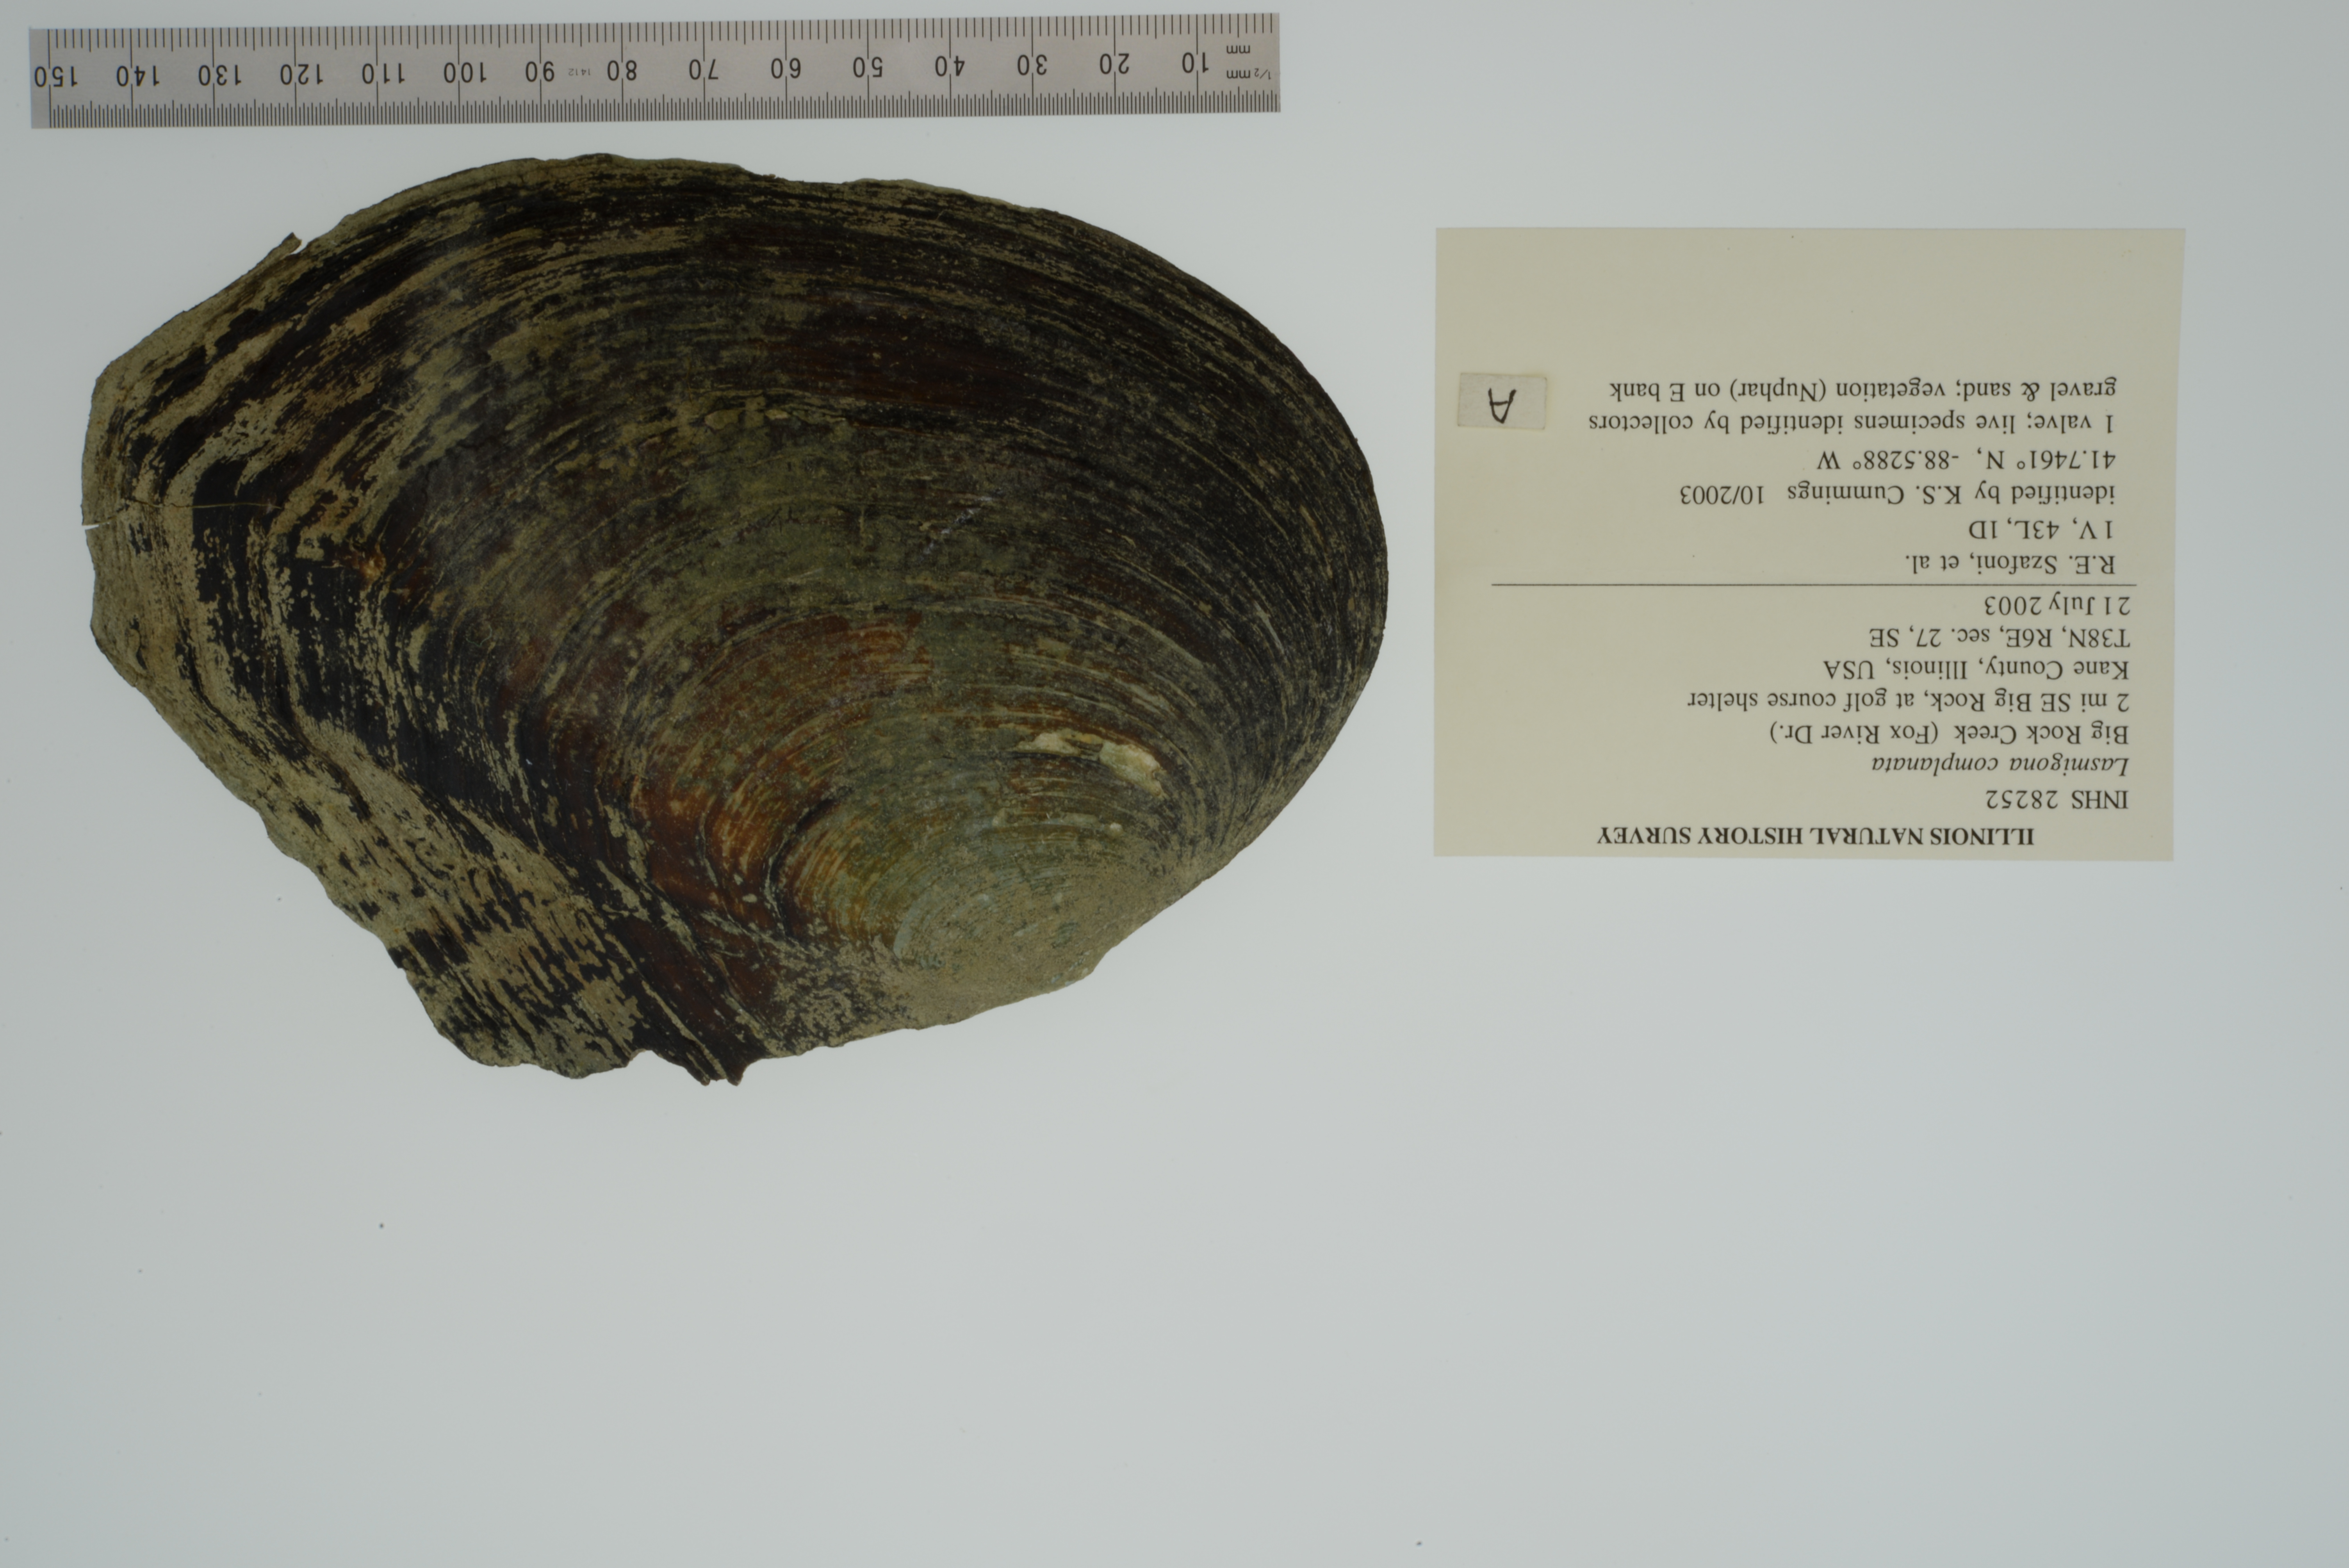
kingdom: Animalia
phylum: Mollusca
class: Bivalvia
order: Unionida
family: Unionidae
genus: Lasmigona
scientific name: Lasmigona complanata
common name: White heelsplitter
